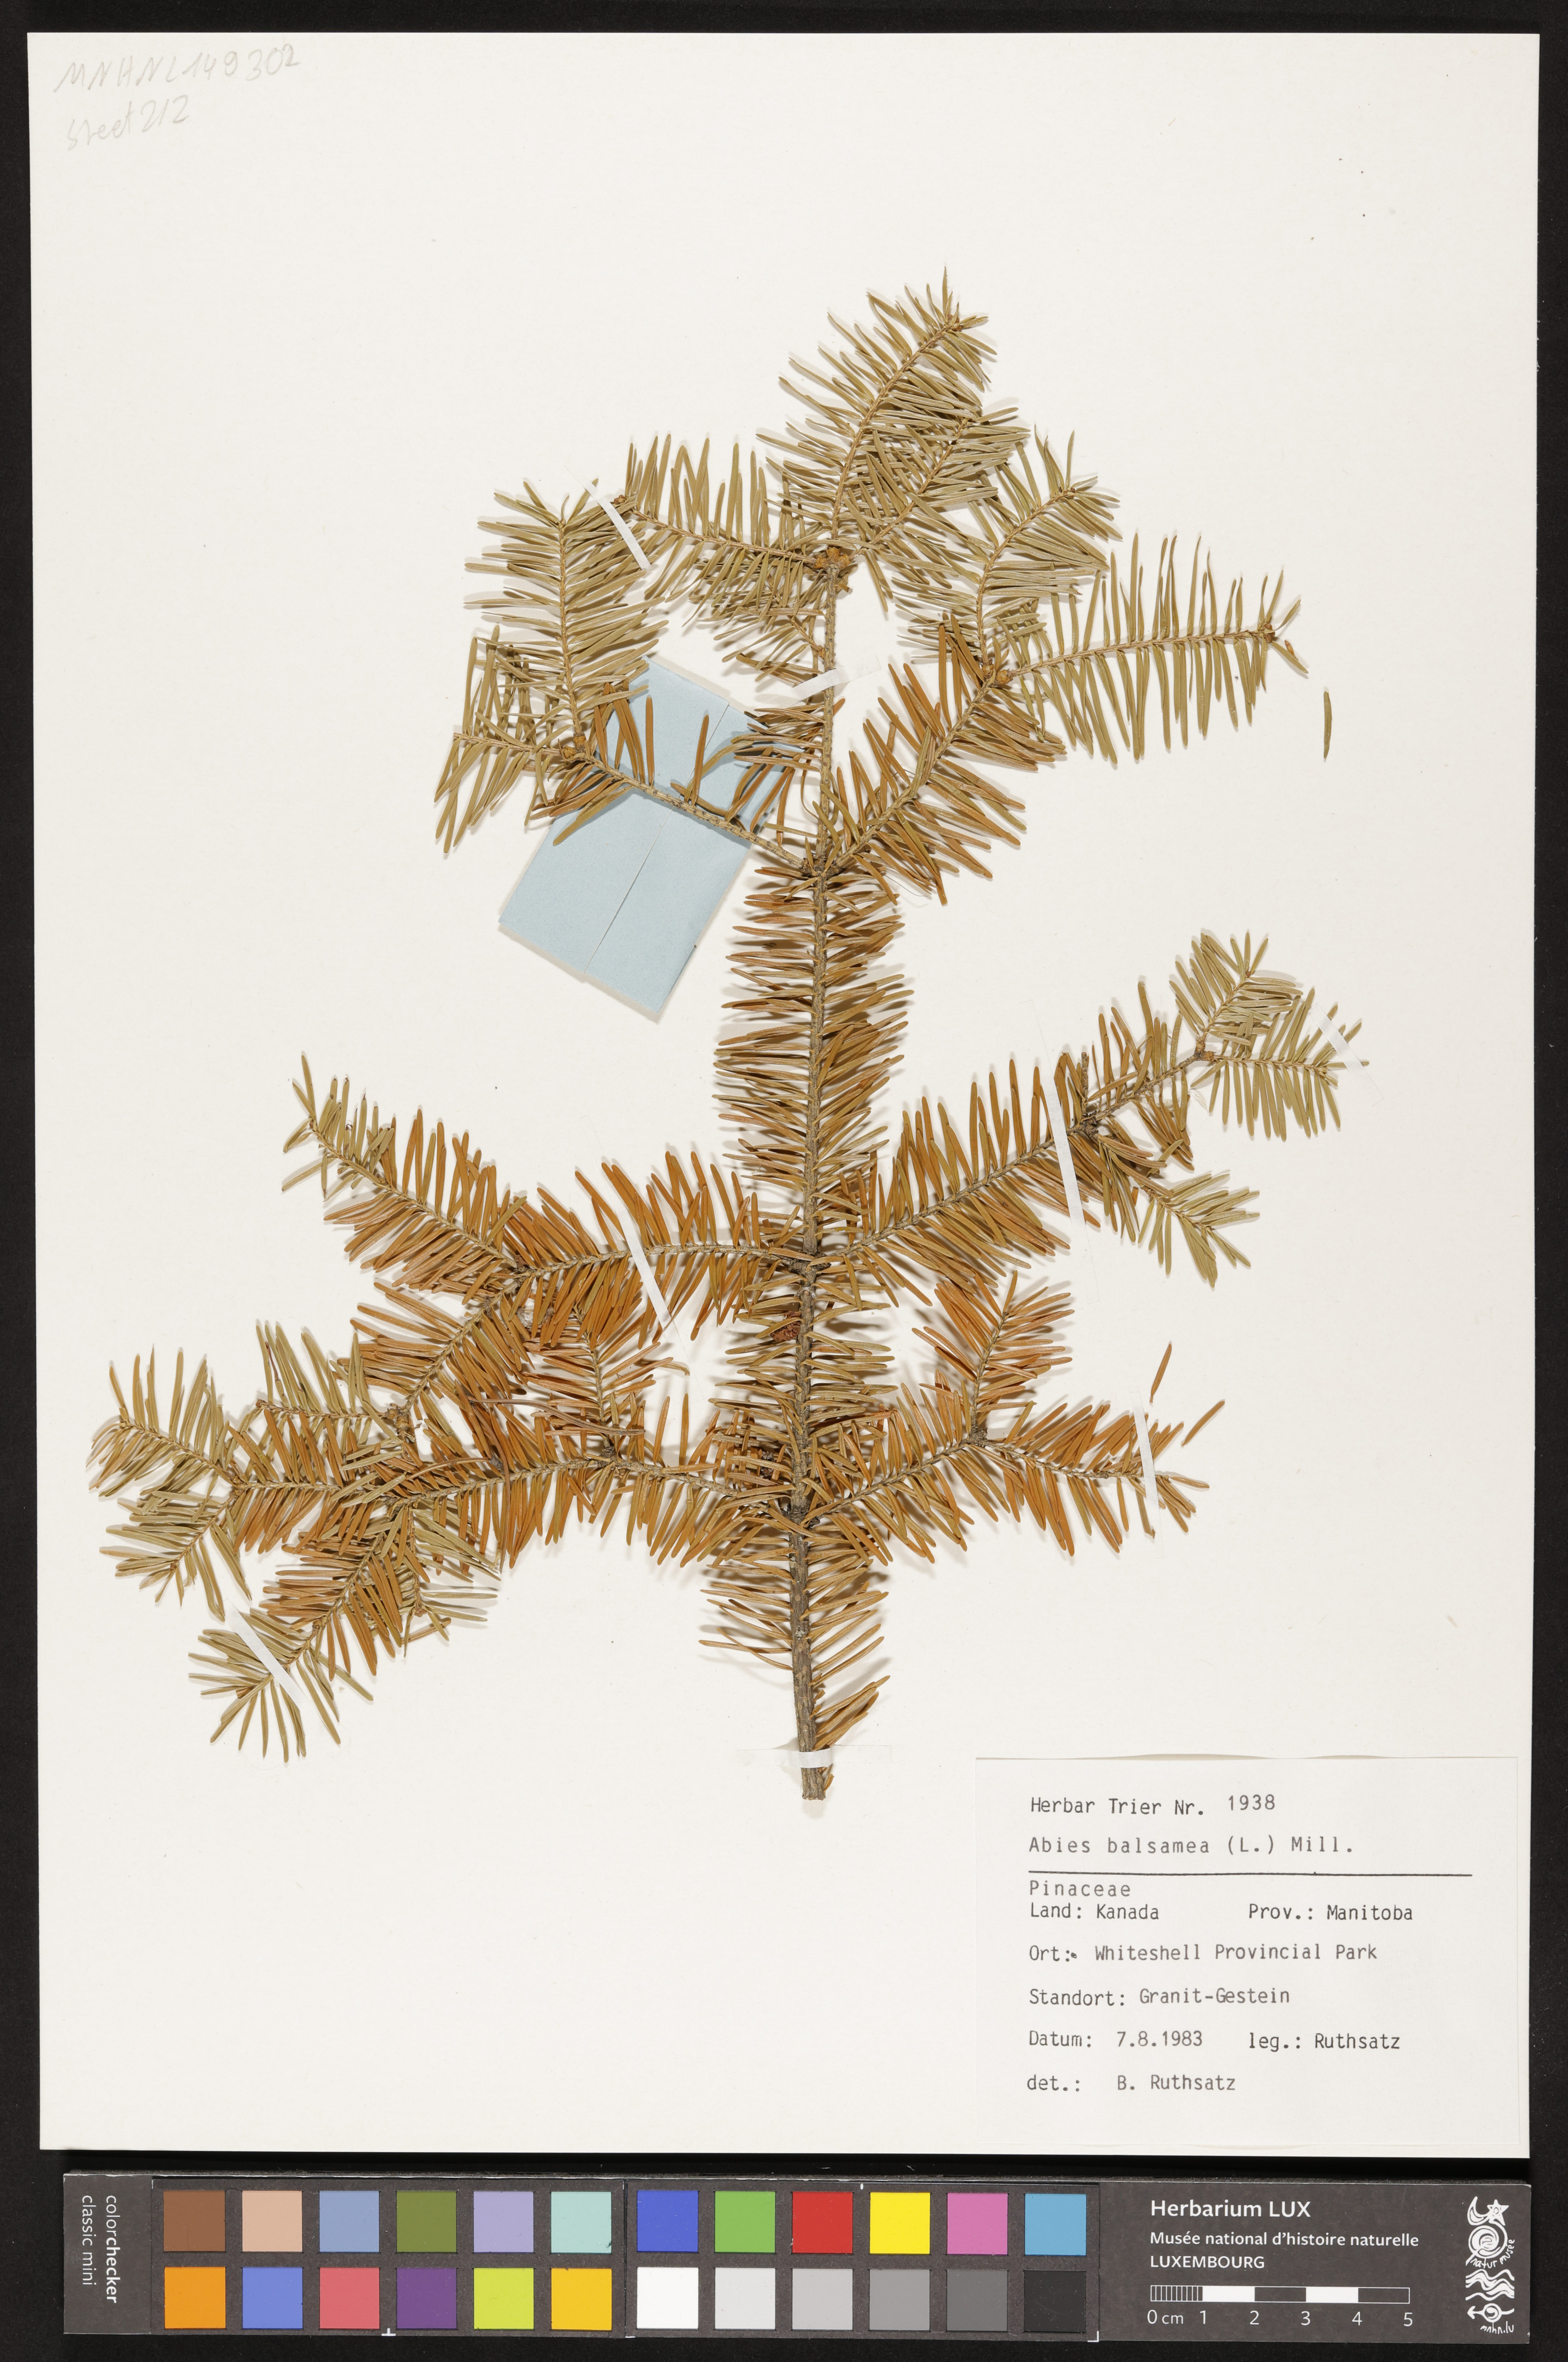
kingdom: Plantae
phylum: Tracheophyta
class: Pinopsida
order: Pinales
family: Pinaceae
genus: Abies
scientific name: Abies balsamea
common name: Balsam fir
